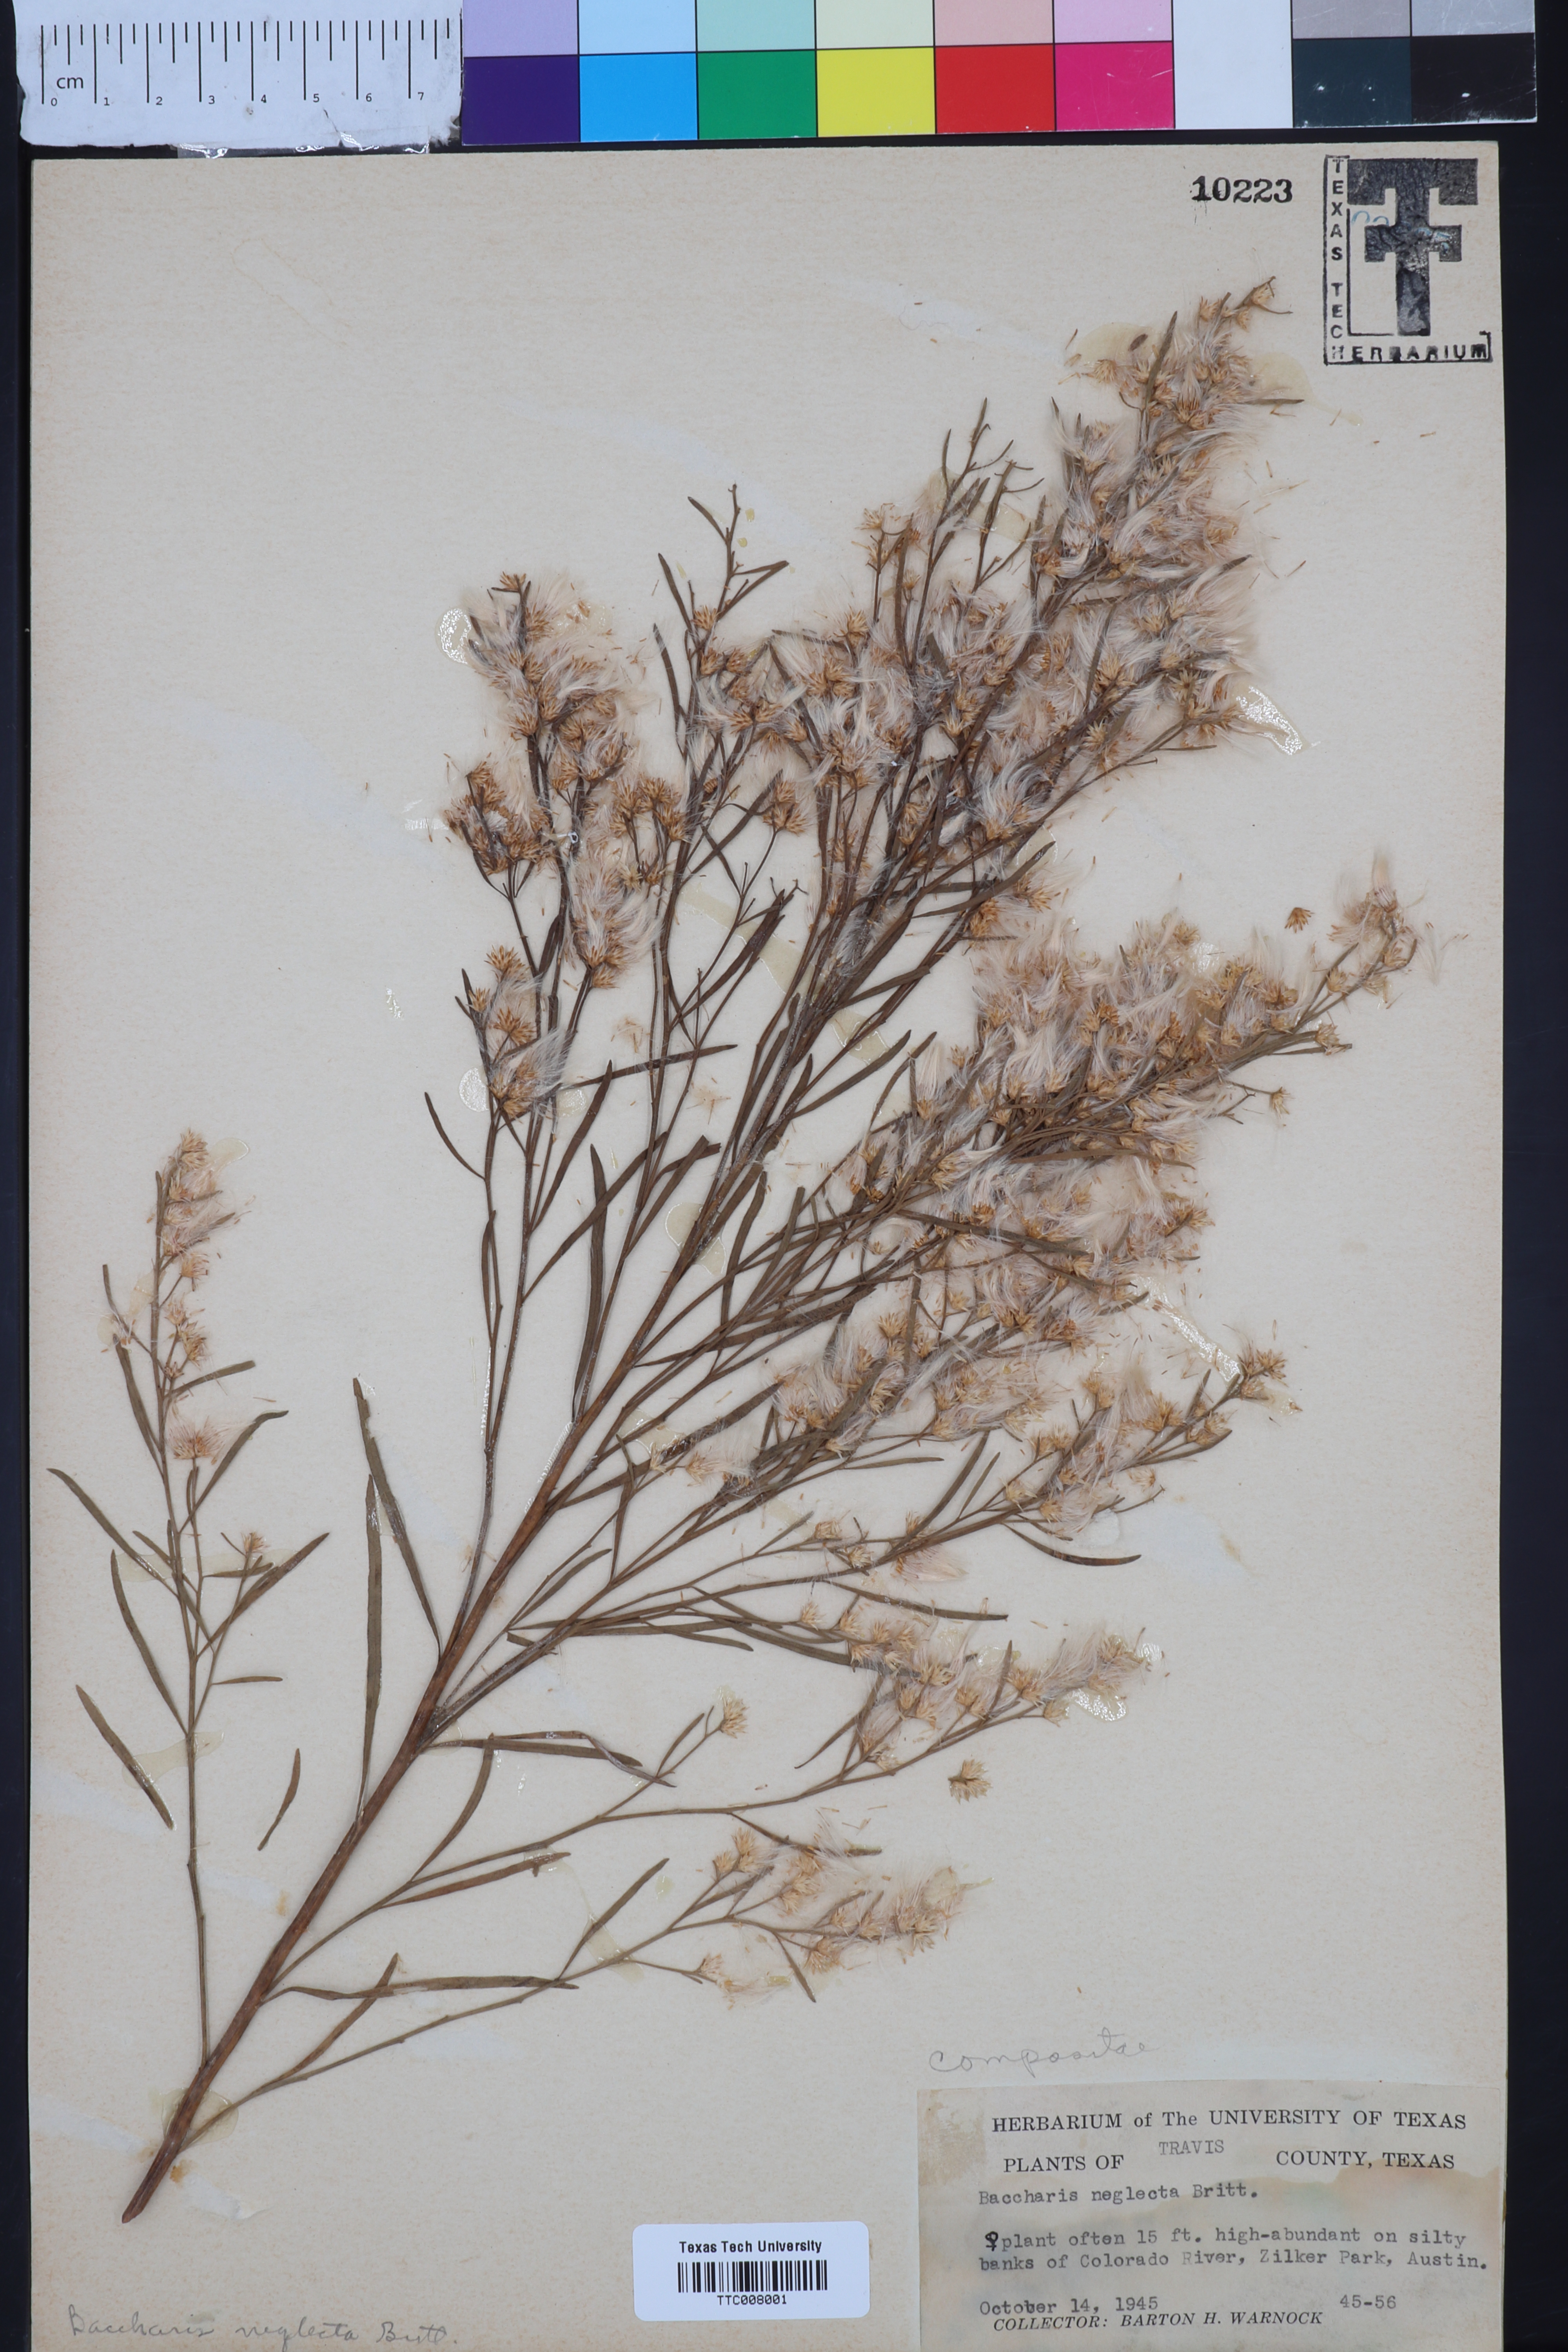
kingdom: Plantae
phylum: Tracheophyta
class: Magnoliopsida
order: Asterales
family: Asteraceae
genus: Baccharis
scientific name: Baccharis neglecta
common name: Roosevelt-weed
